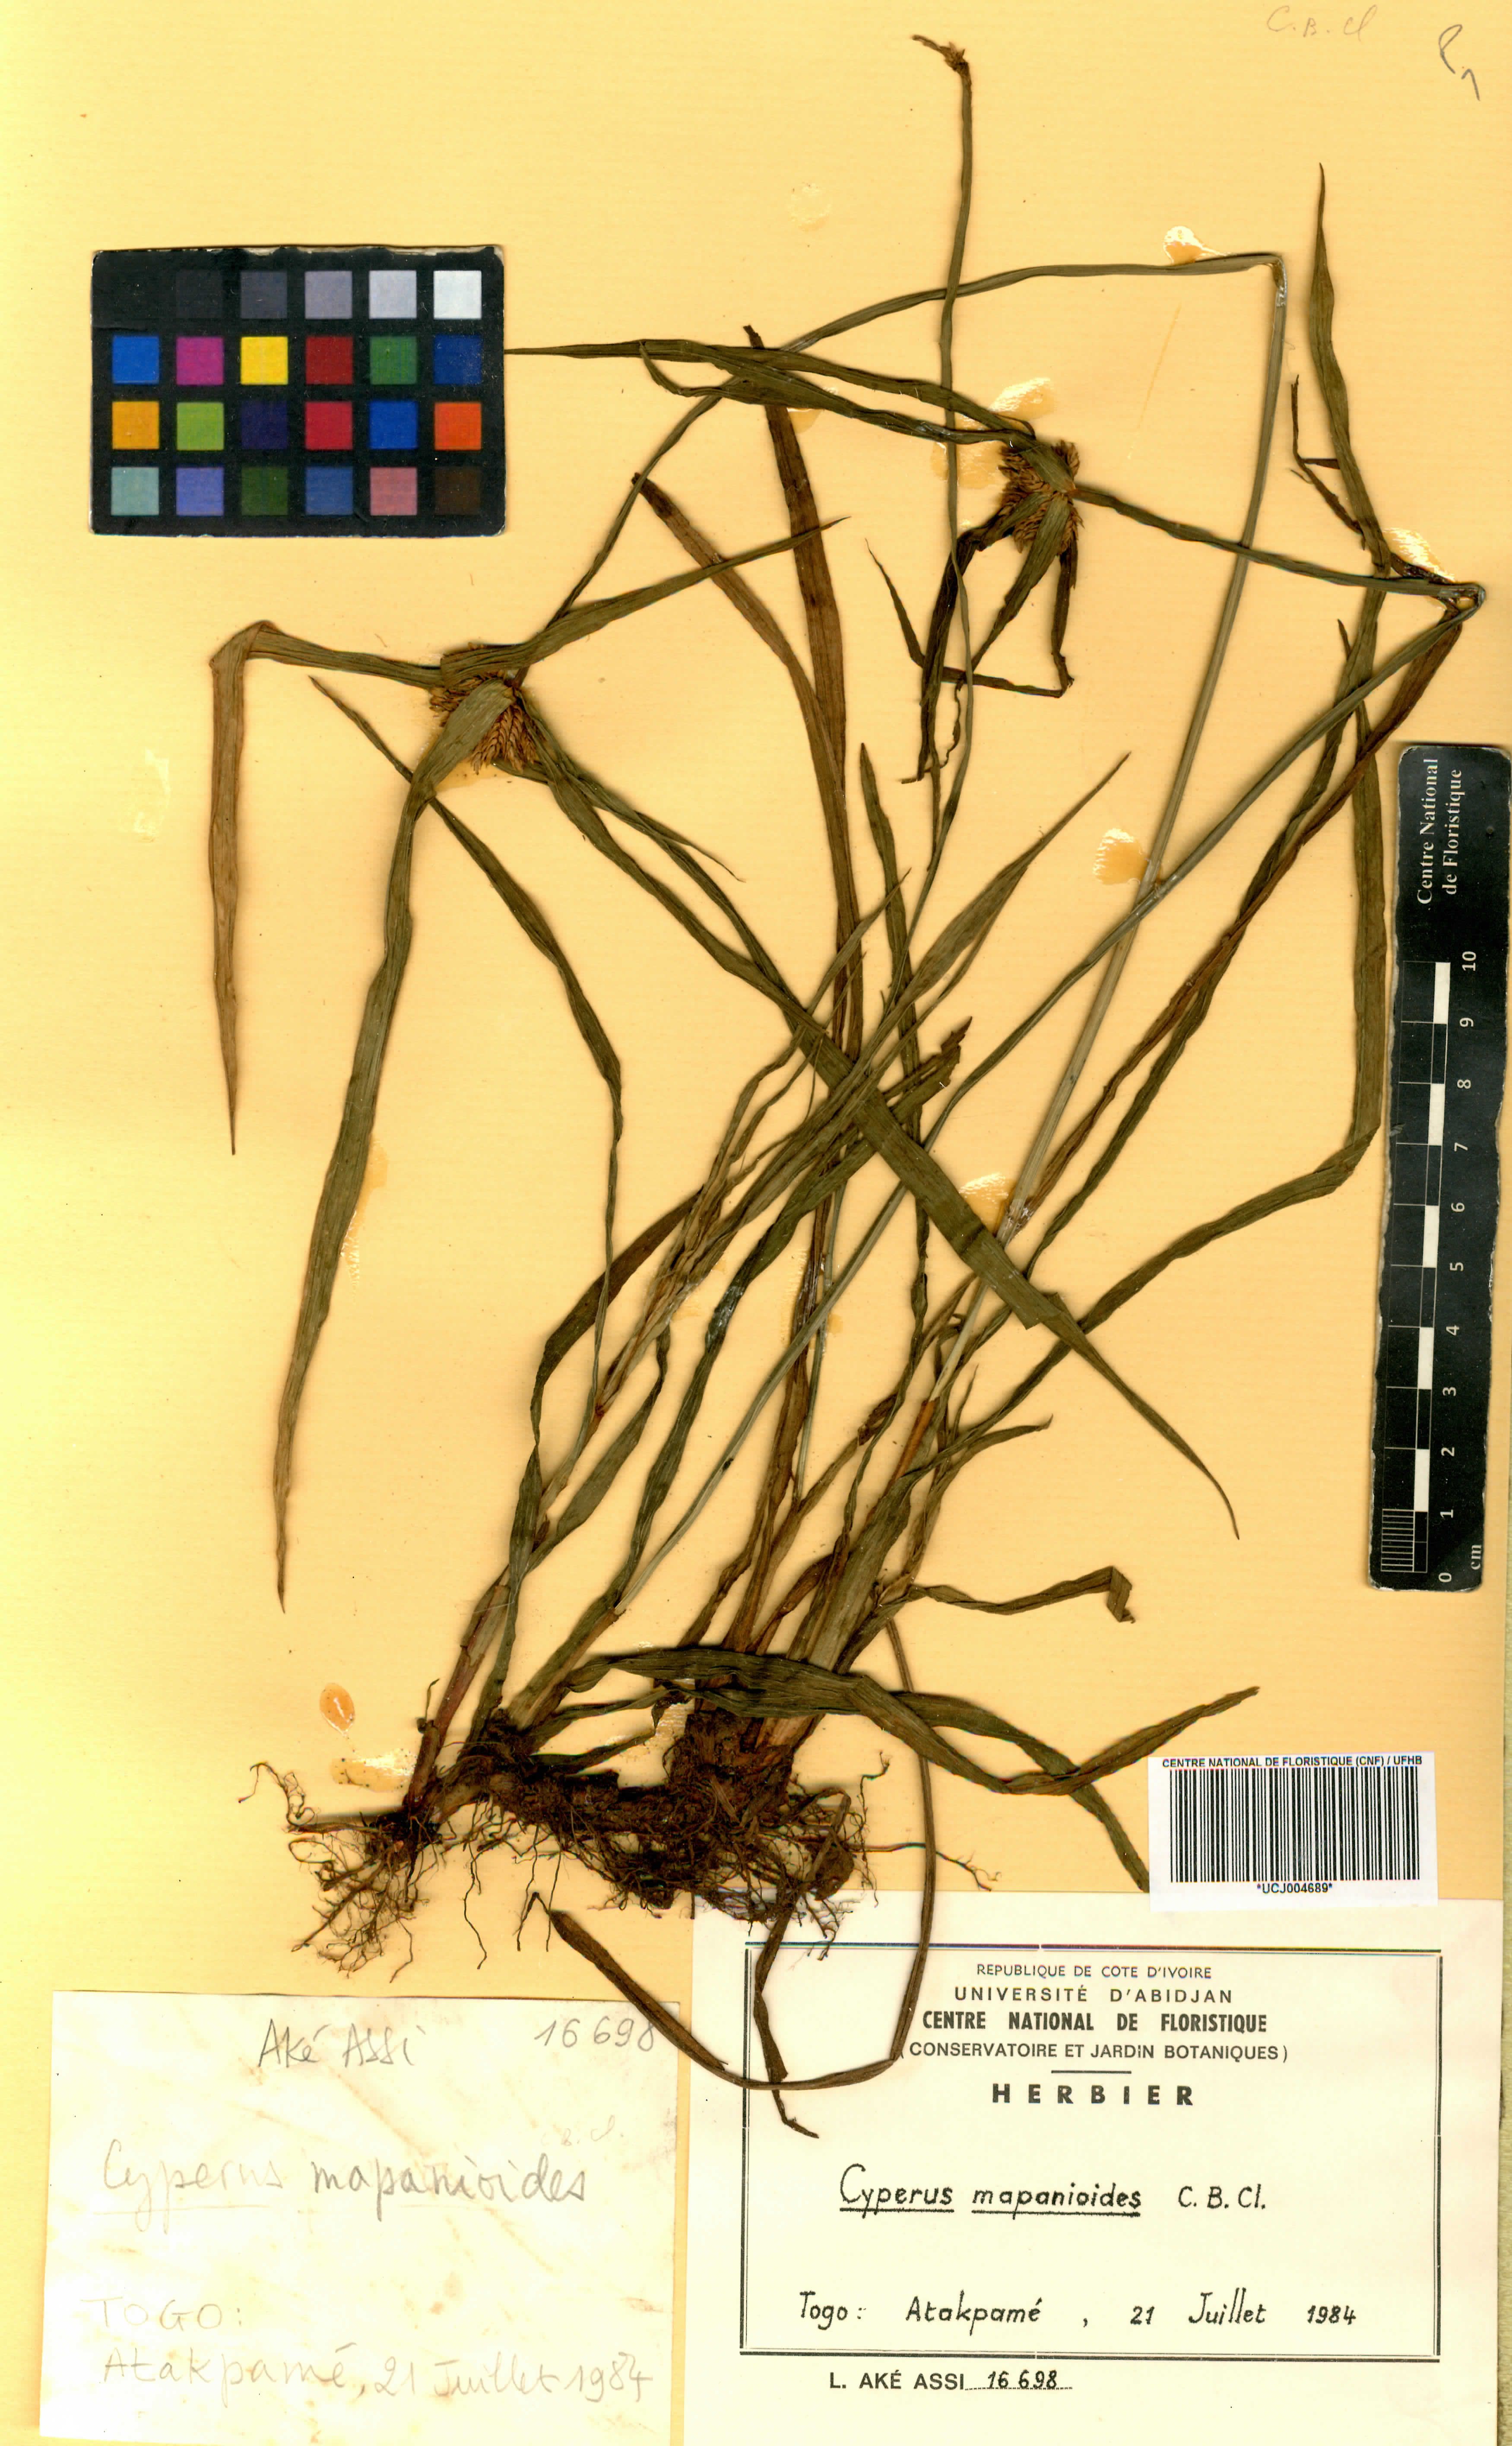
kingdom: Plantae
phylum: Tracheophyta
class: Liliopsida
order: Poales
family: Cyperaceae
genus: Cyperus
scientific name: Cyperus mapanioides
